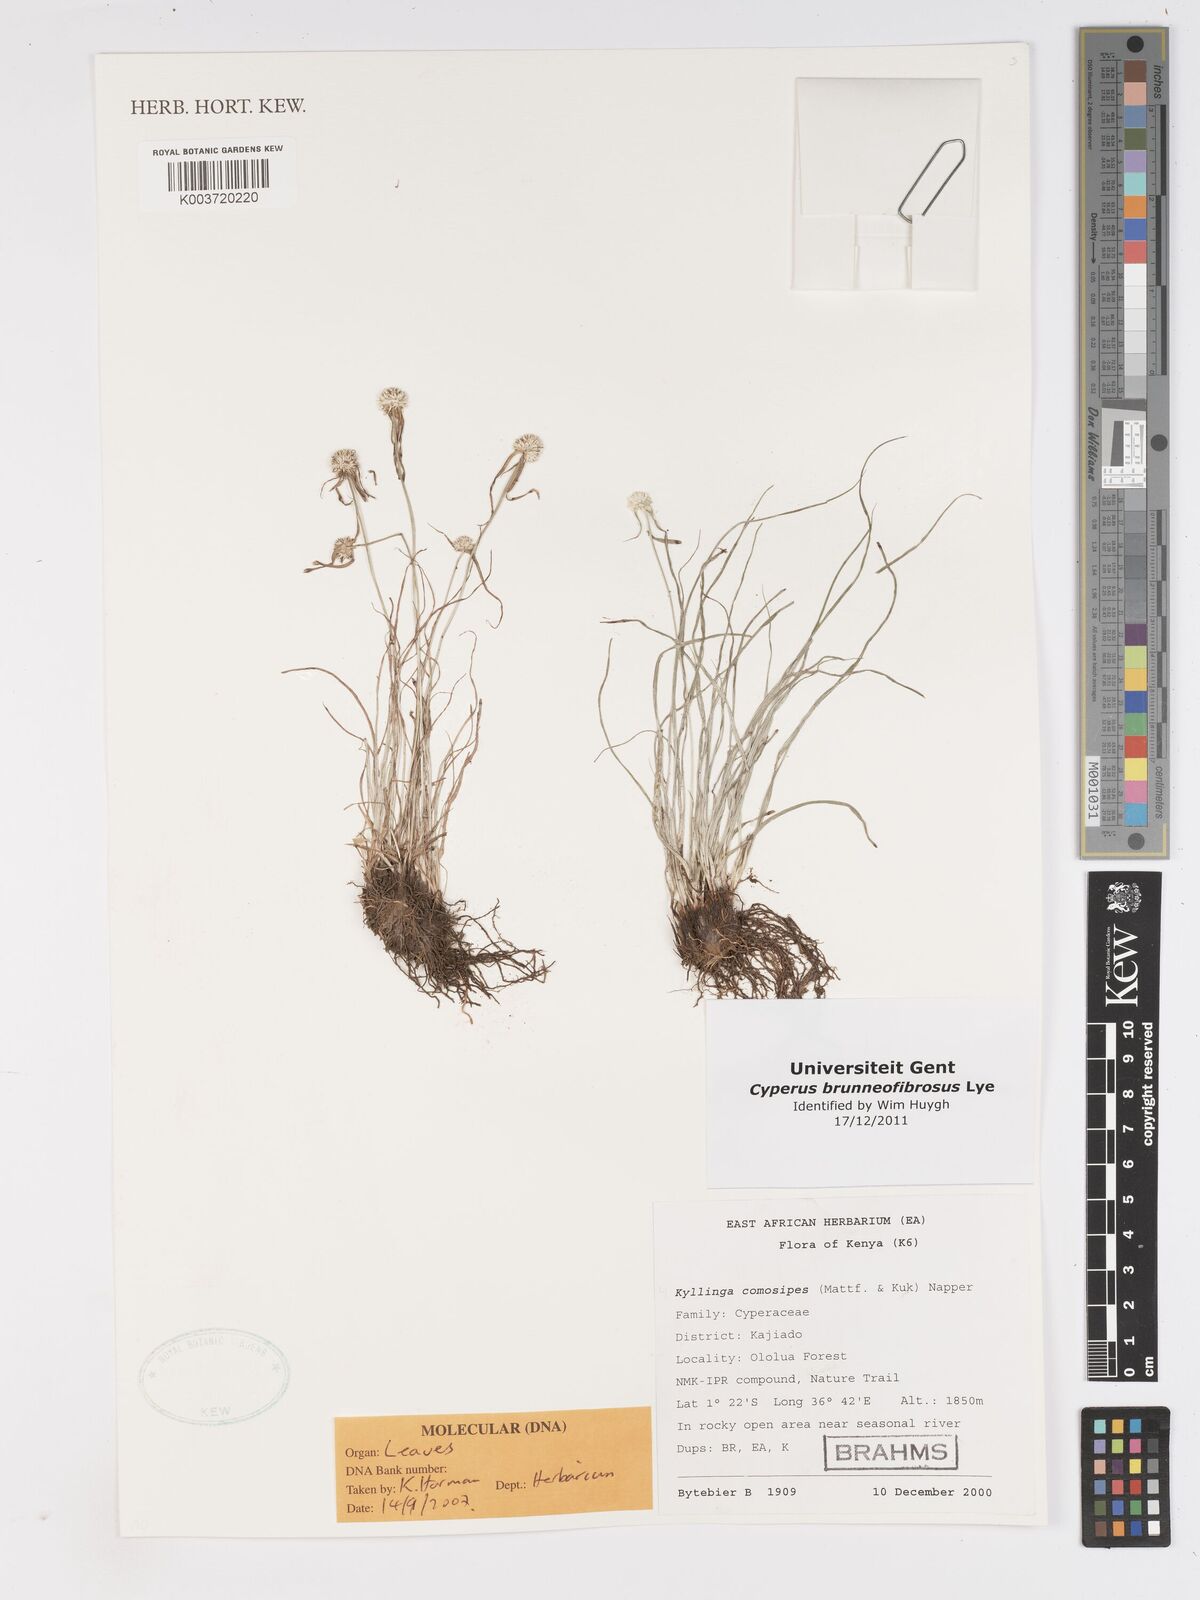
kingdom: Plantae
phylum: Tracheophyta
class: Liliopsida
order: Poales
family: Cyperaceae
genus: Cyperus
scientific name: Cyperus brunneofibrosus
